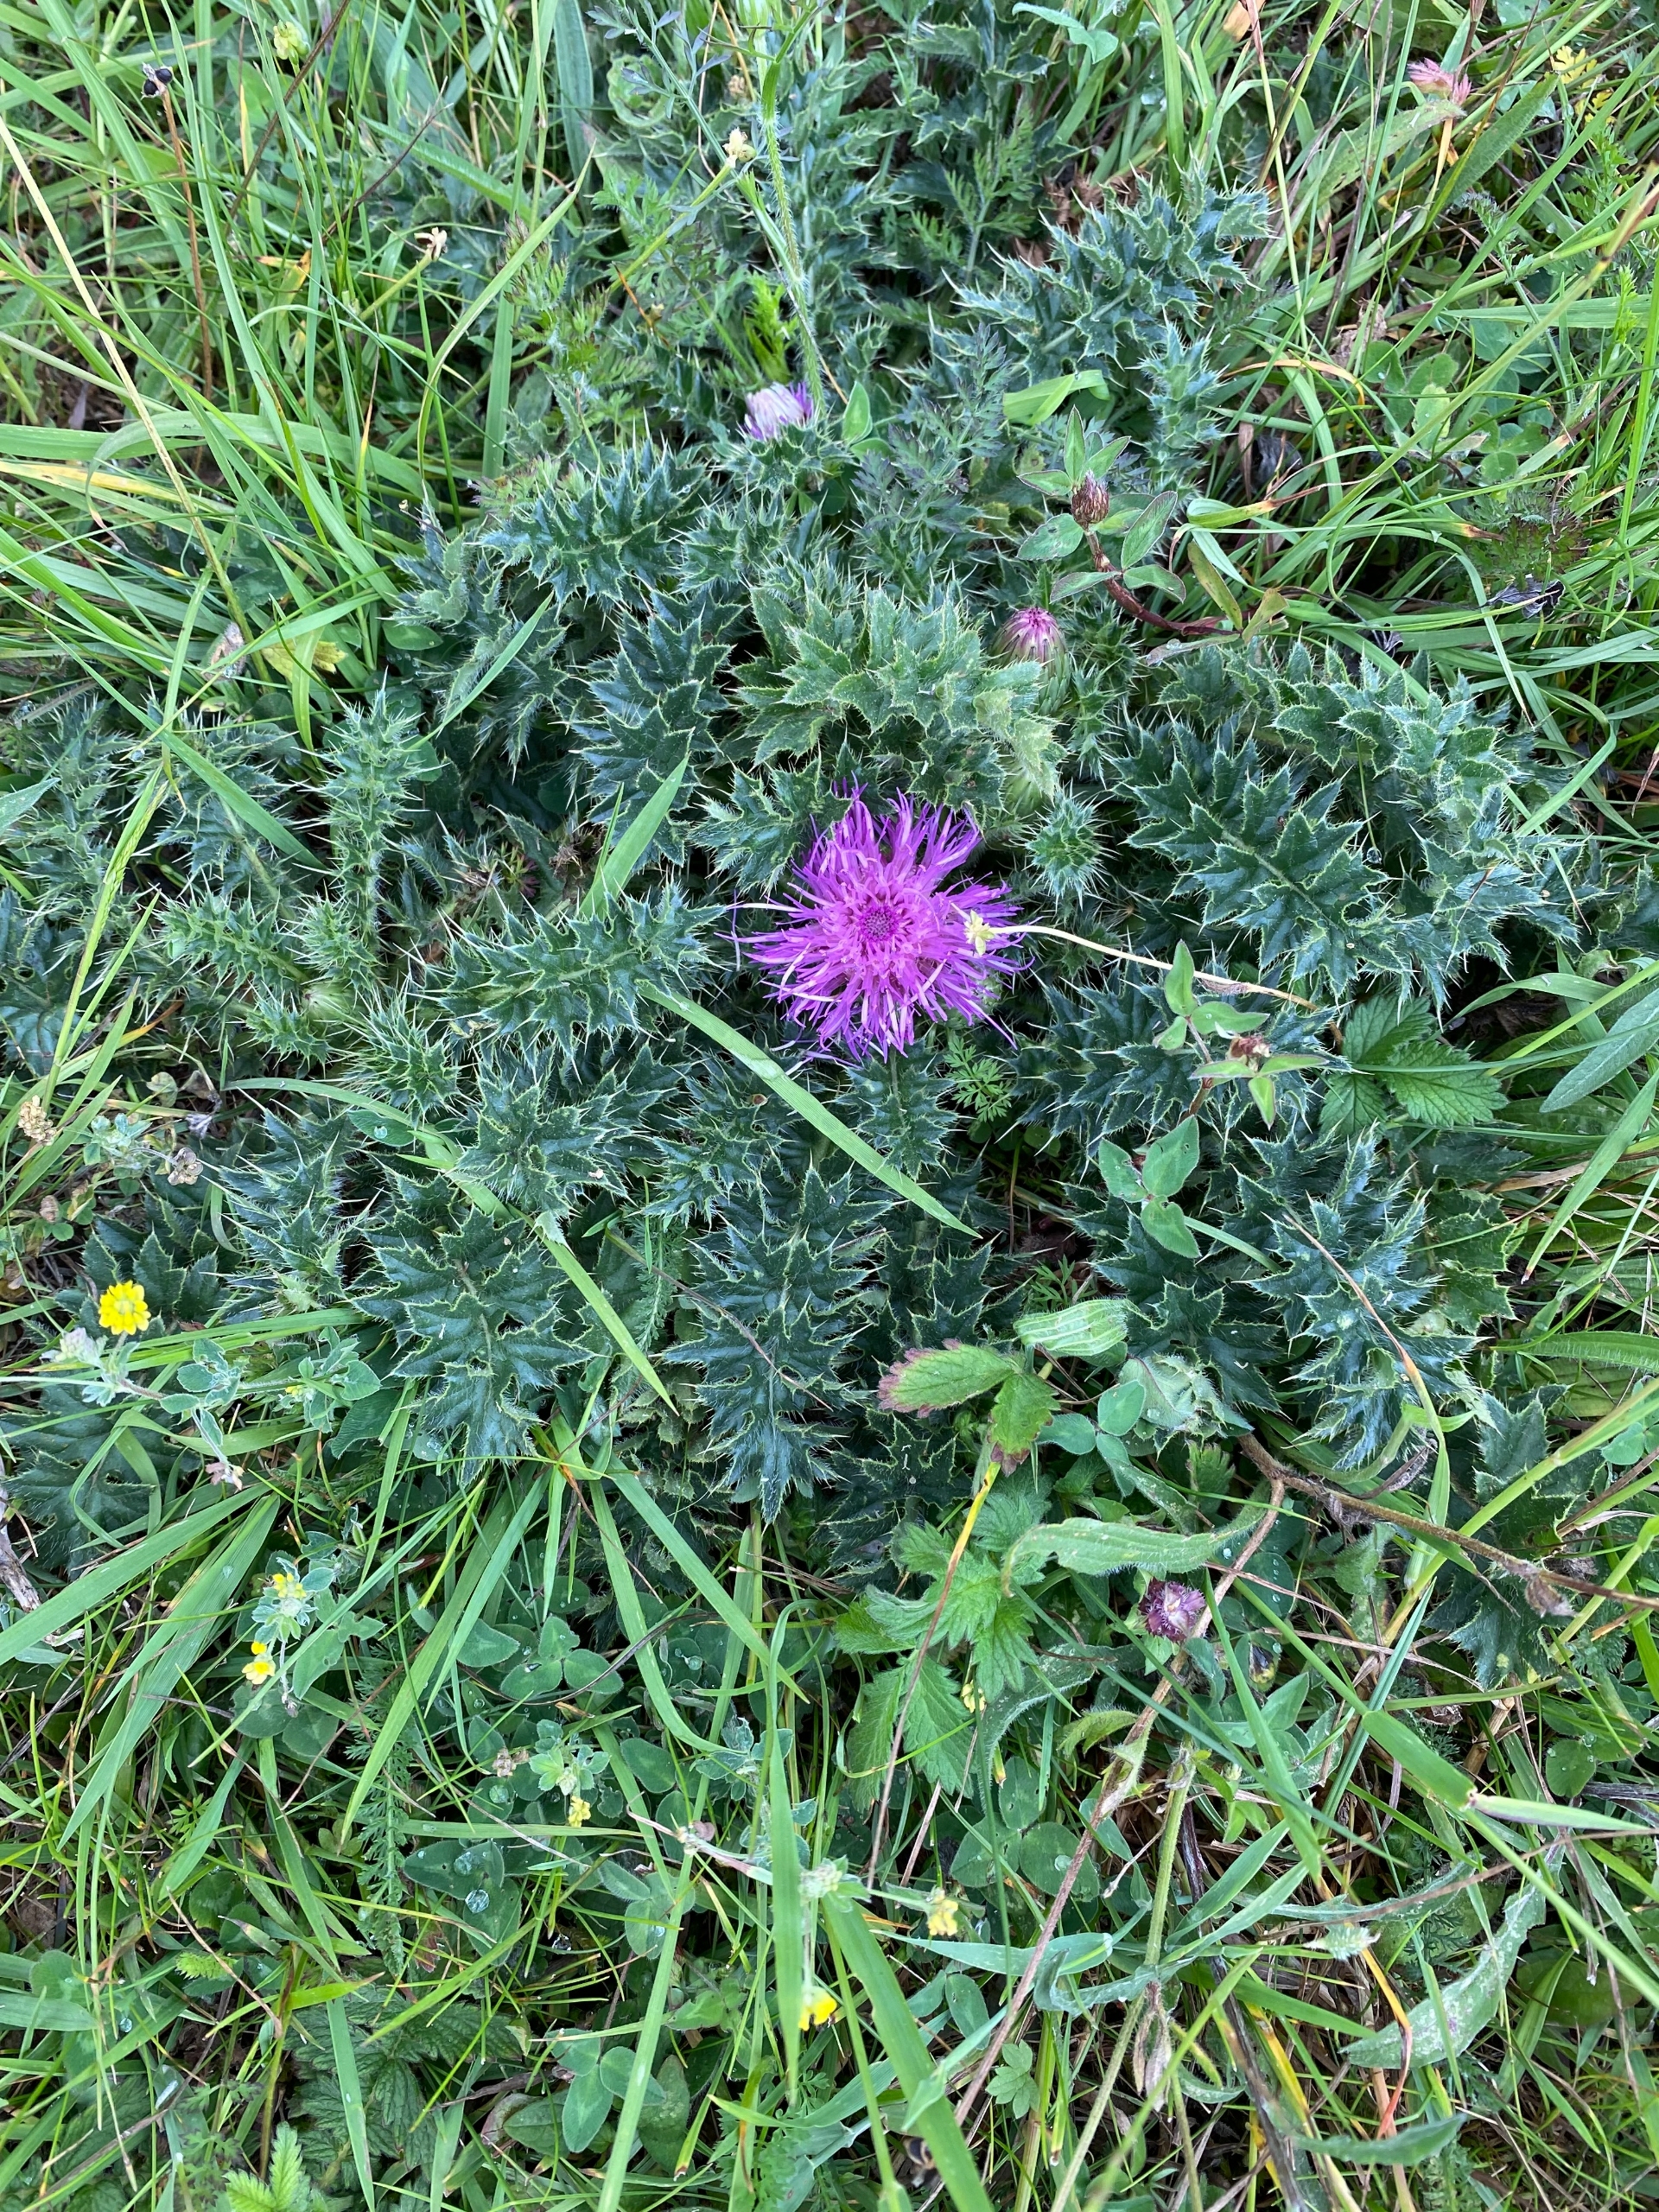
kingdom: Plantae
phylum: Tracheophyta
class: Magnoliopsida
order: Asterales
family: Asteraceae
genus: Cirsium
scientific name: Cirsium acaule
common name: Lav tidsel
